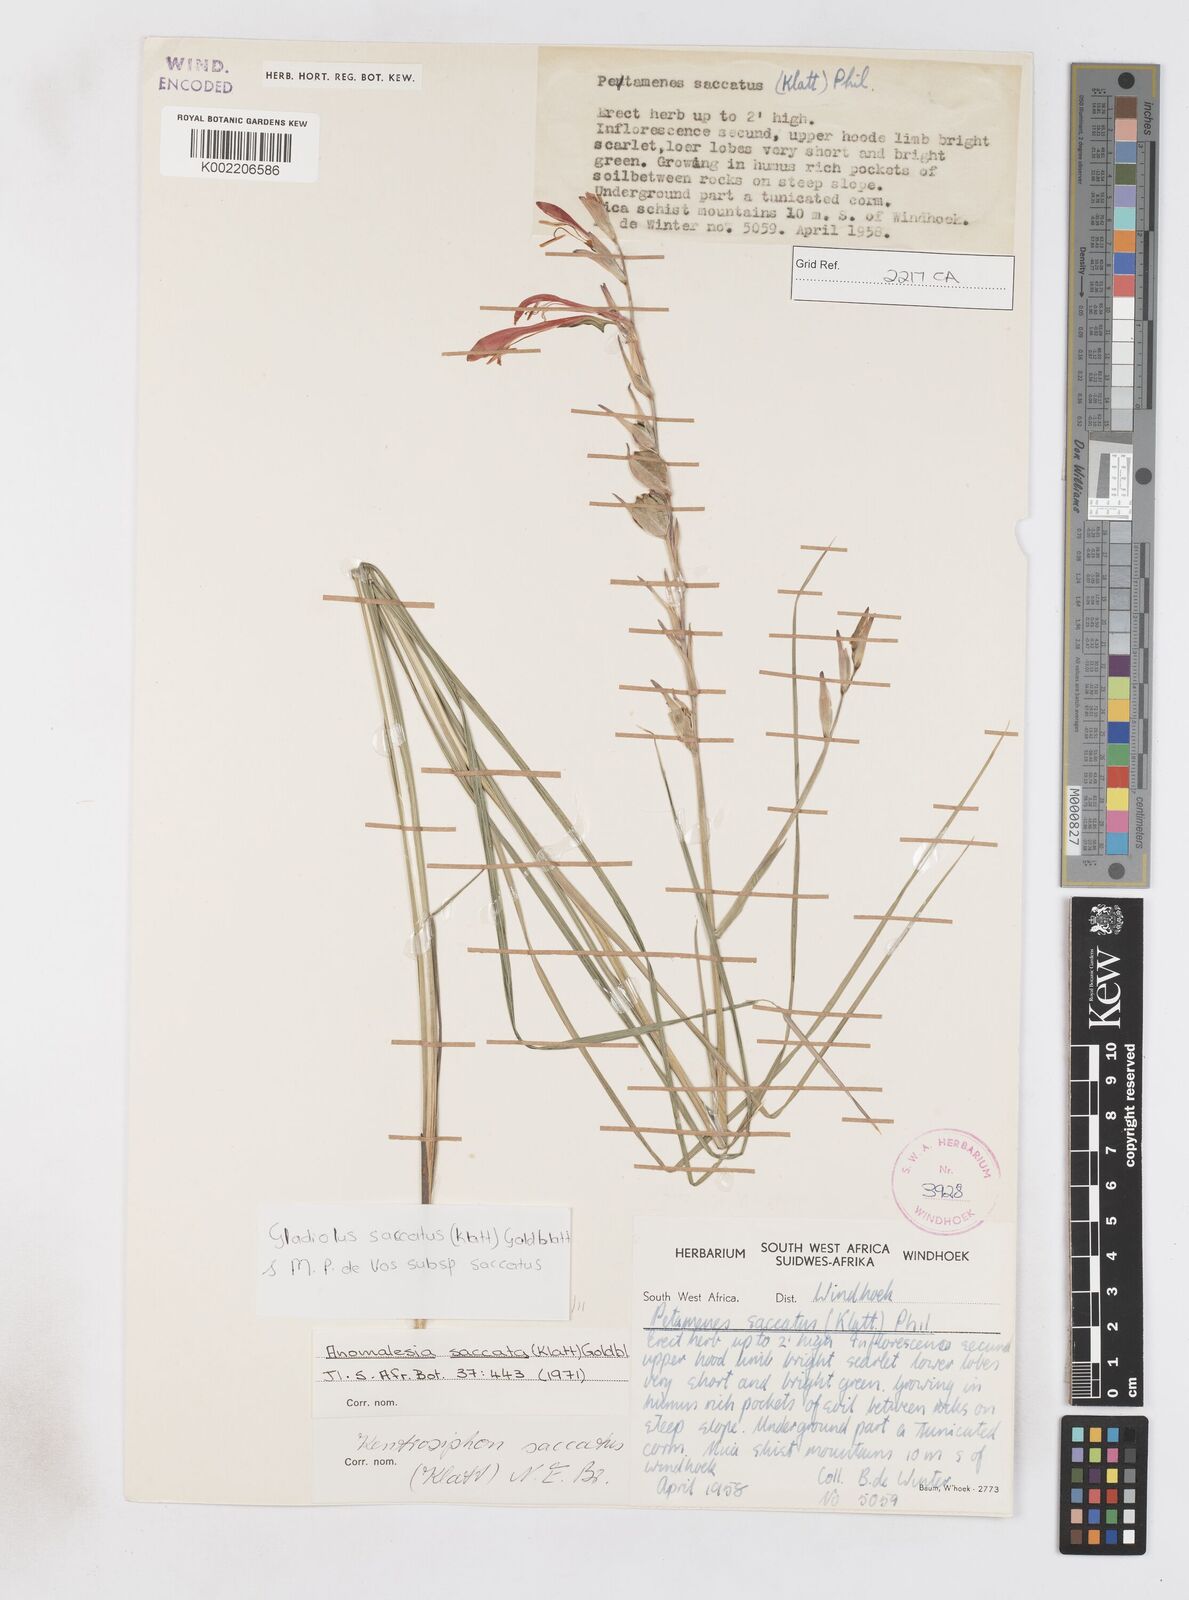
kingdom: Plantae
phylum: Tracheophyta
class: Liliopsida
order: Asparagales
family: Iridaceae
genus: Gladiolus
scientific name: Gladiolus saccatus
